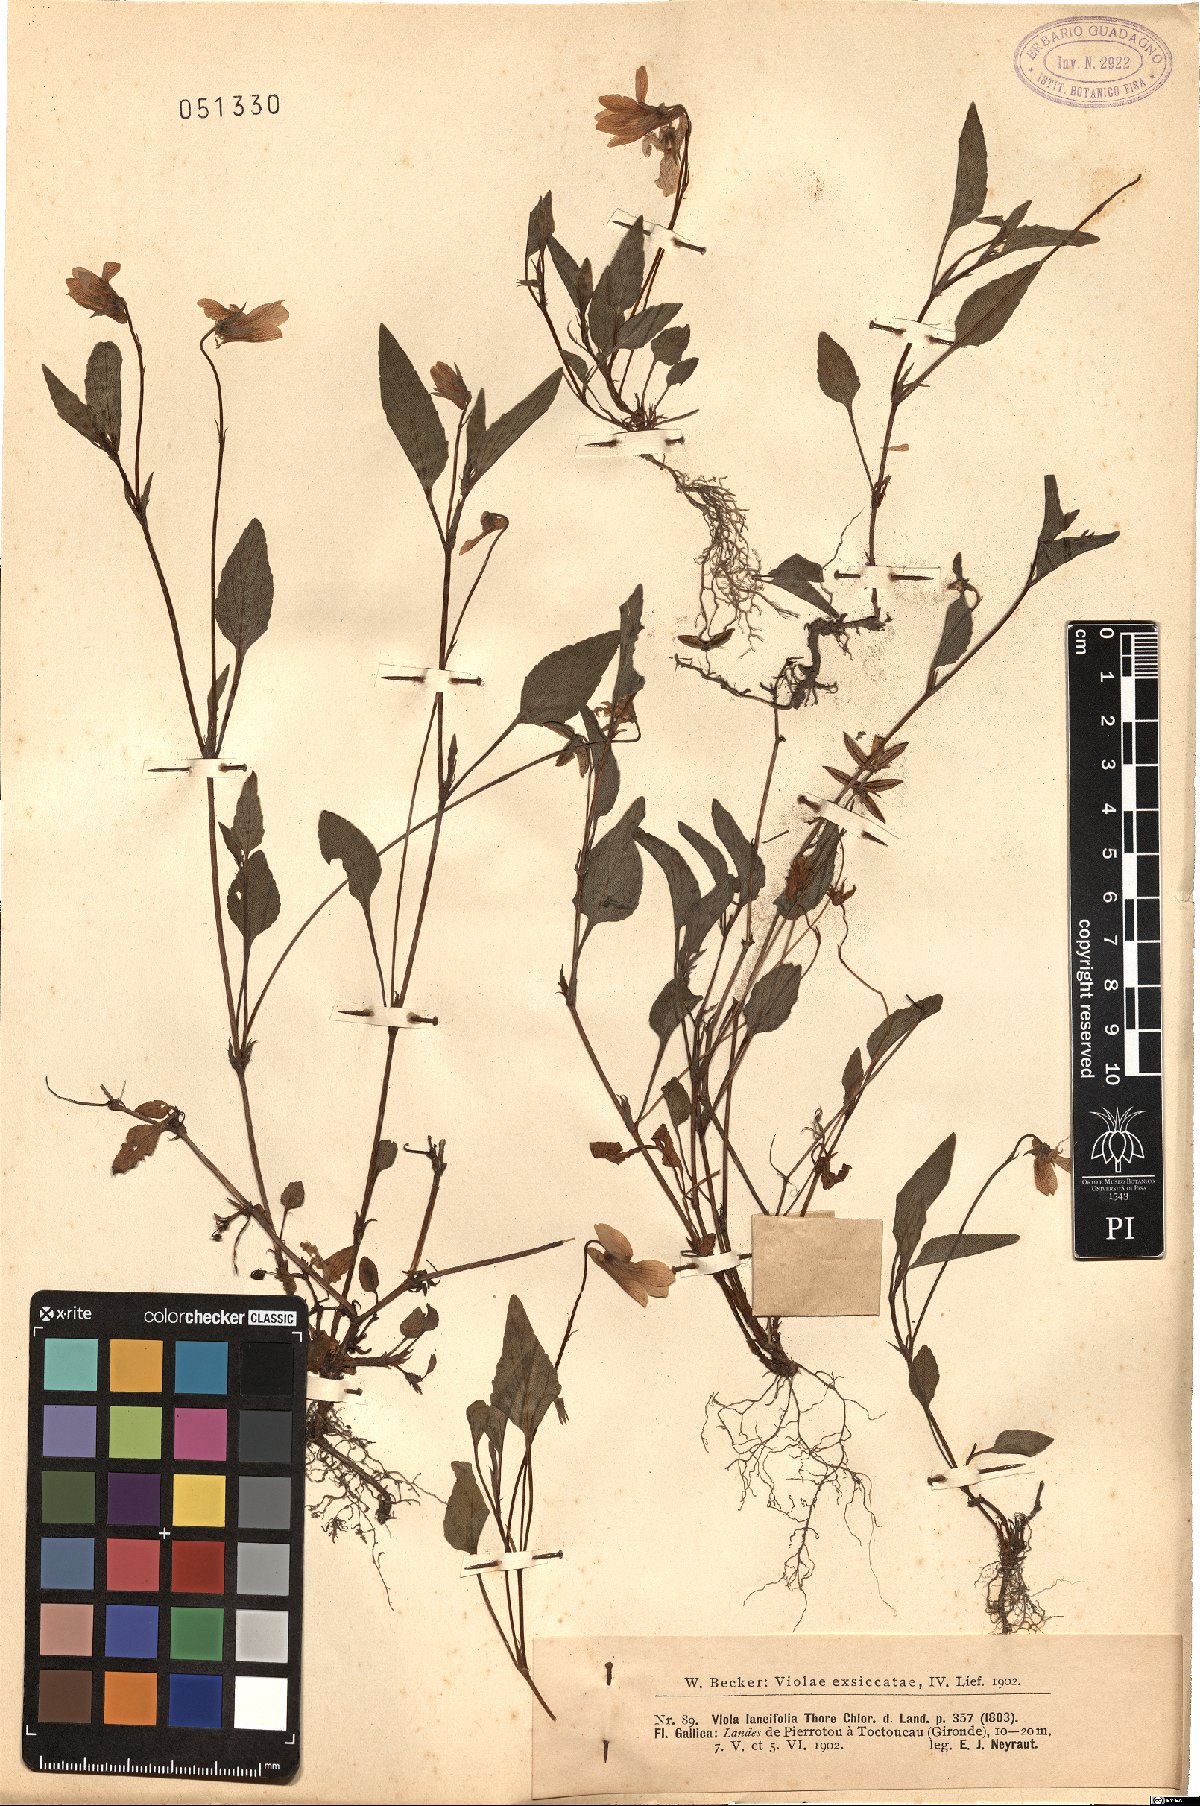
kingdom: Plantae
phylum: Tracheophyta
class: Magnoliopsida
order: Malpighiales
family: Violaceae
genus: Viola
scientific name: Viola canina
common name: Heath dog-violet
